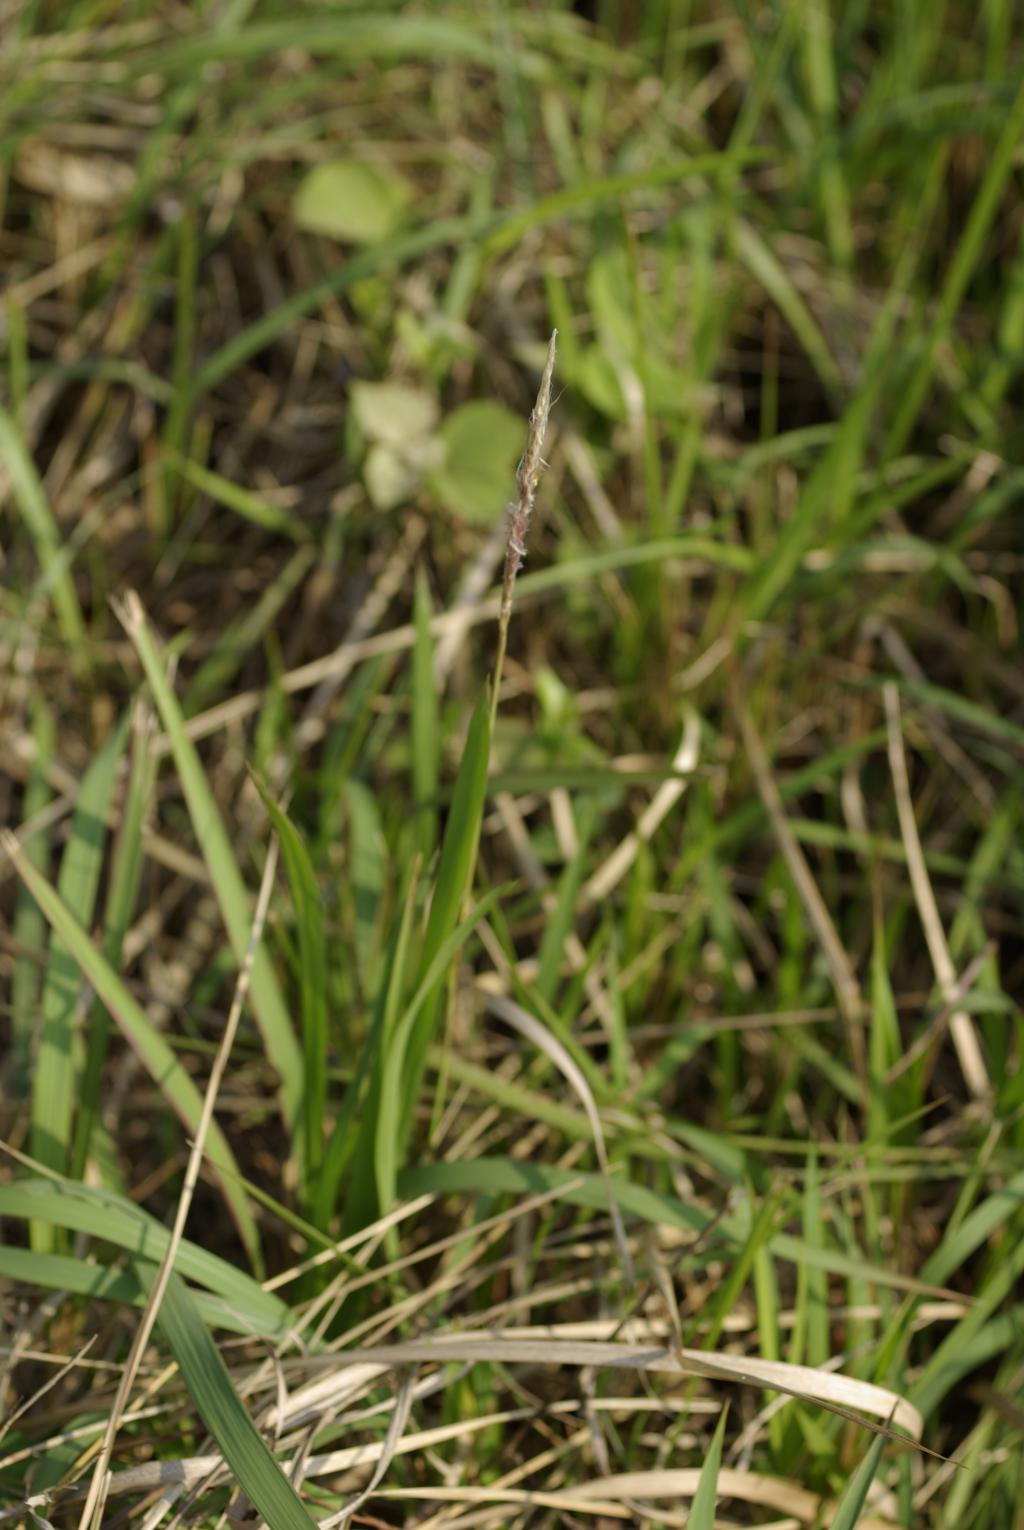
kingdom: Plantae
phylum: Tracheophyta
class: Liliopsida
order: Poales
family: Poaceae
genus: Imperata
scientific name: Imperata cylindrica
